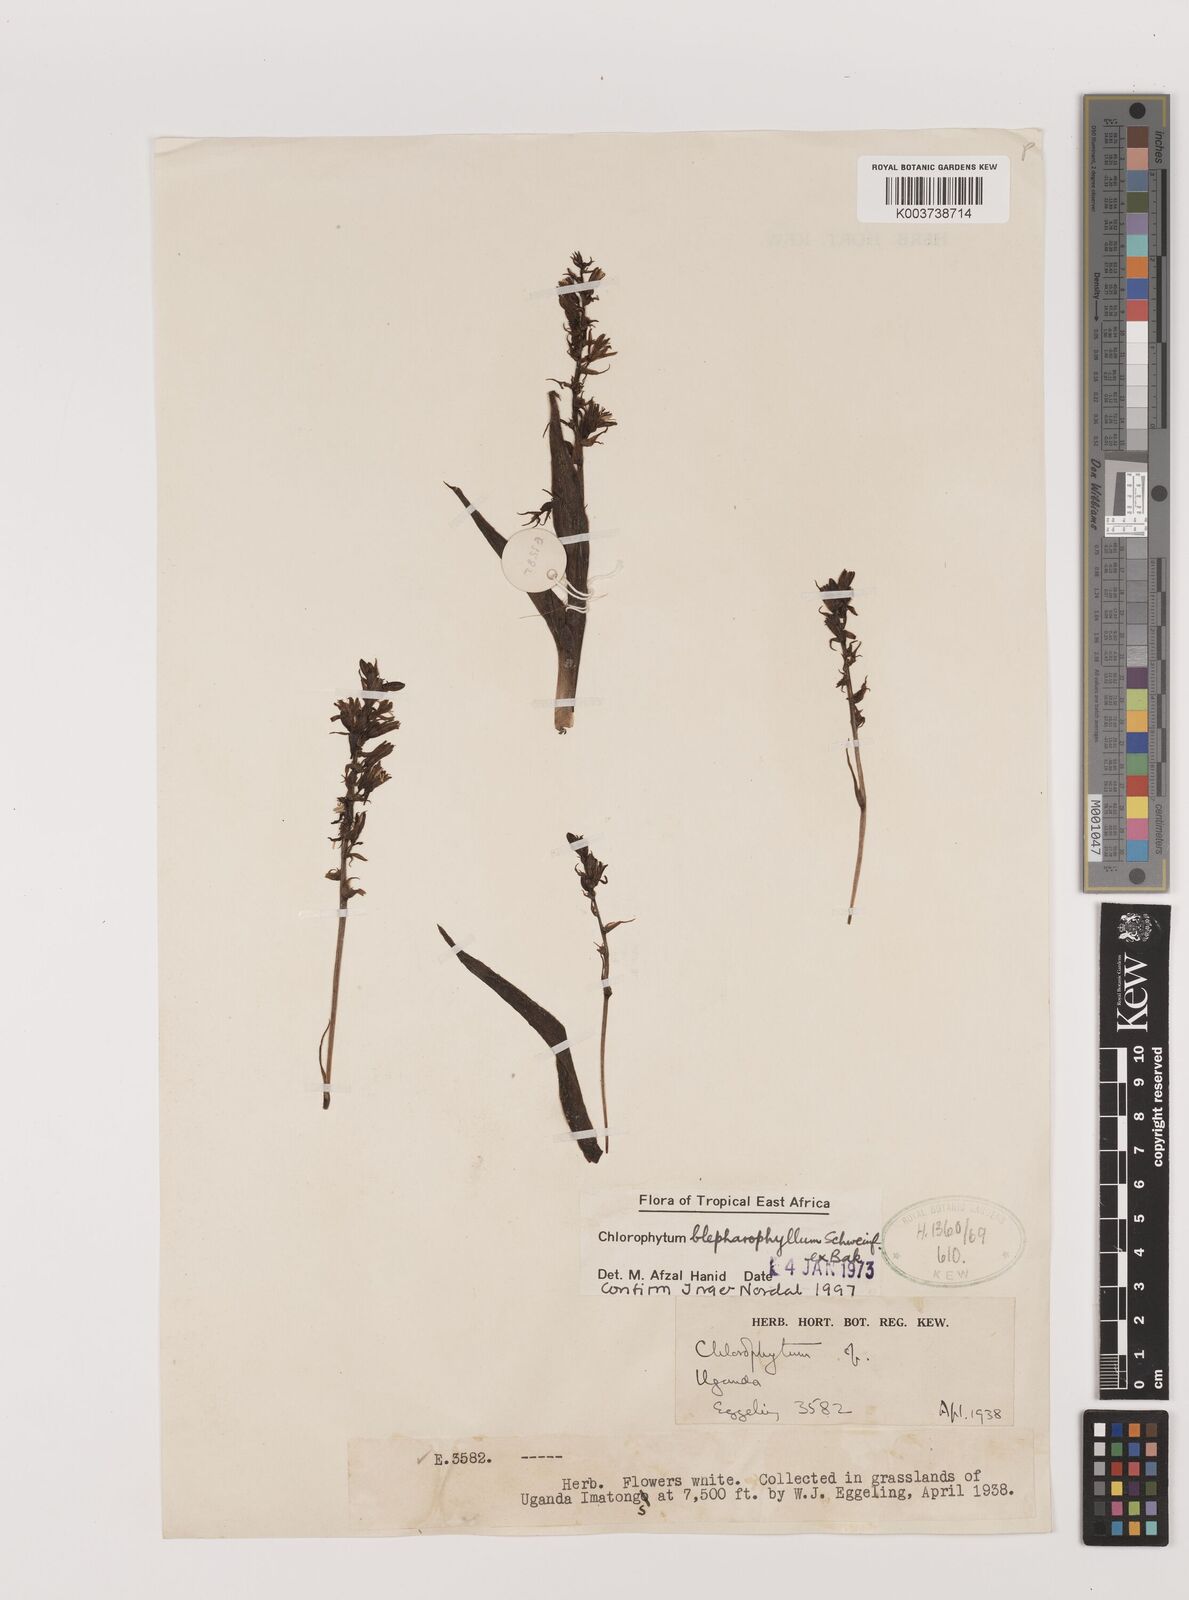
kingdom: Plantae
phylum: Tracheophyta
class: Liliopsida
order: Asparagales
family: Asparagaceae
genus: Chlorophytum
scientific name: Chlorophytum blepharophyllum
